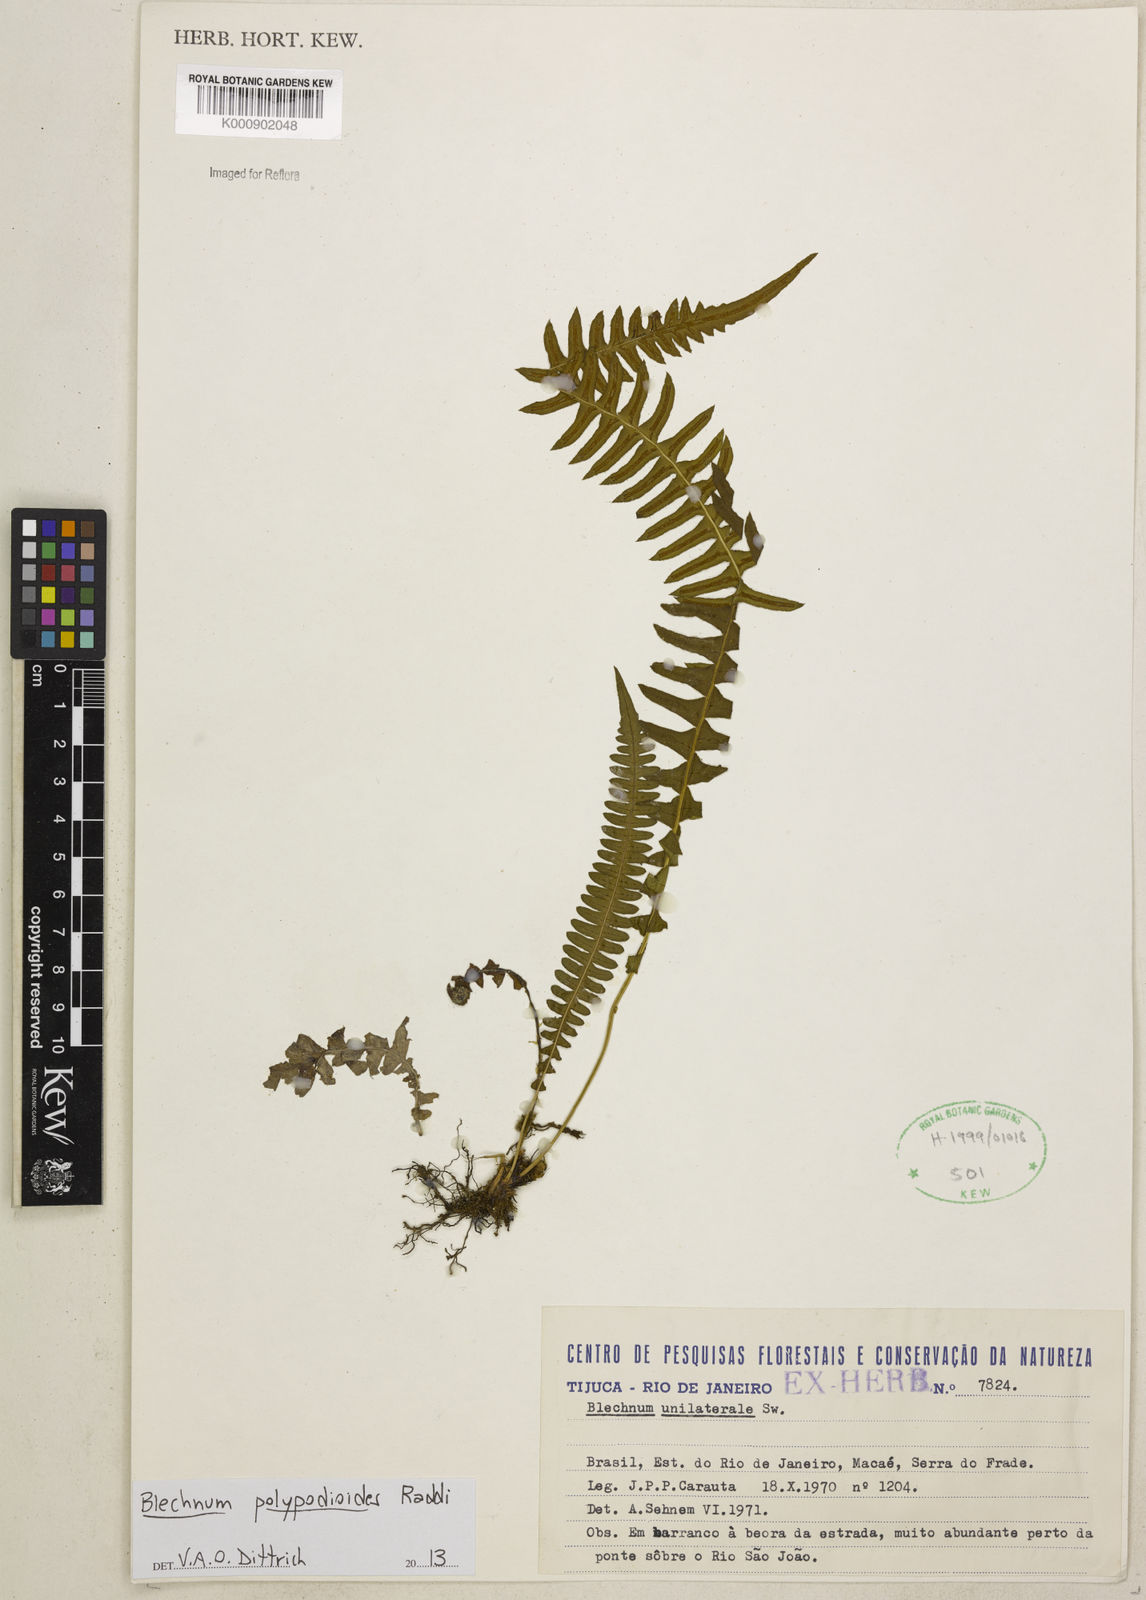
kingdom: Plantae
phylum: Tracheophyta
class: Polypodiopsida
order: Polypodiales
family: Blechnaceae
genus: Blechnum
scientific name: Blechnum polypodioides
